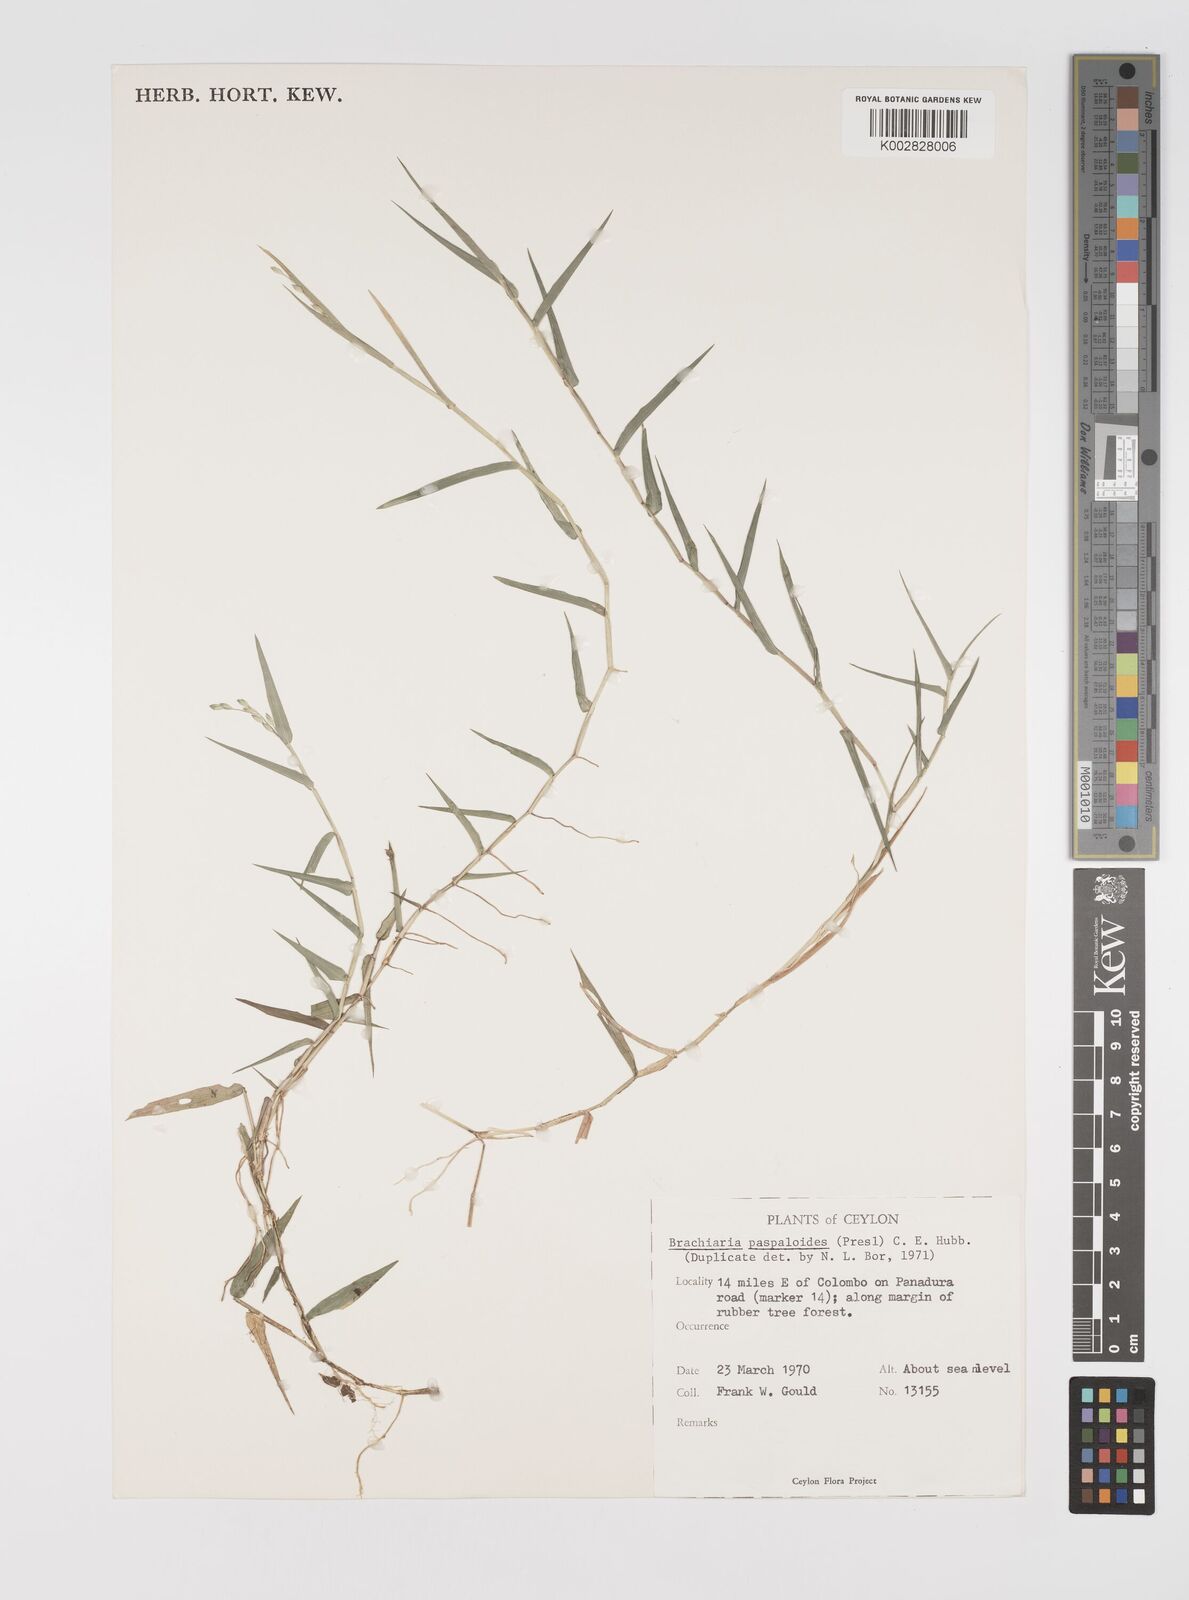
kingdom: Plantae
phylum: Tracheophyta
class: Liliopsida
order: Poales
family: Poaceae
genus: Acroceras
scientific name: Acroceras munroanum
